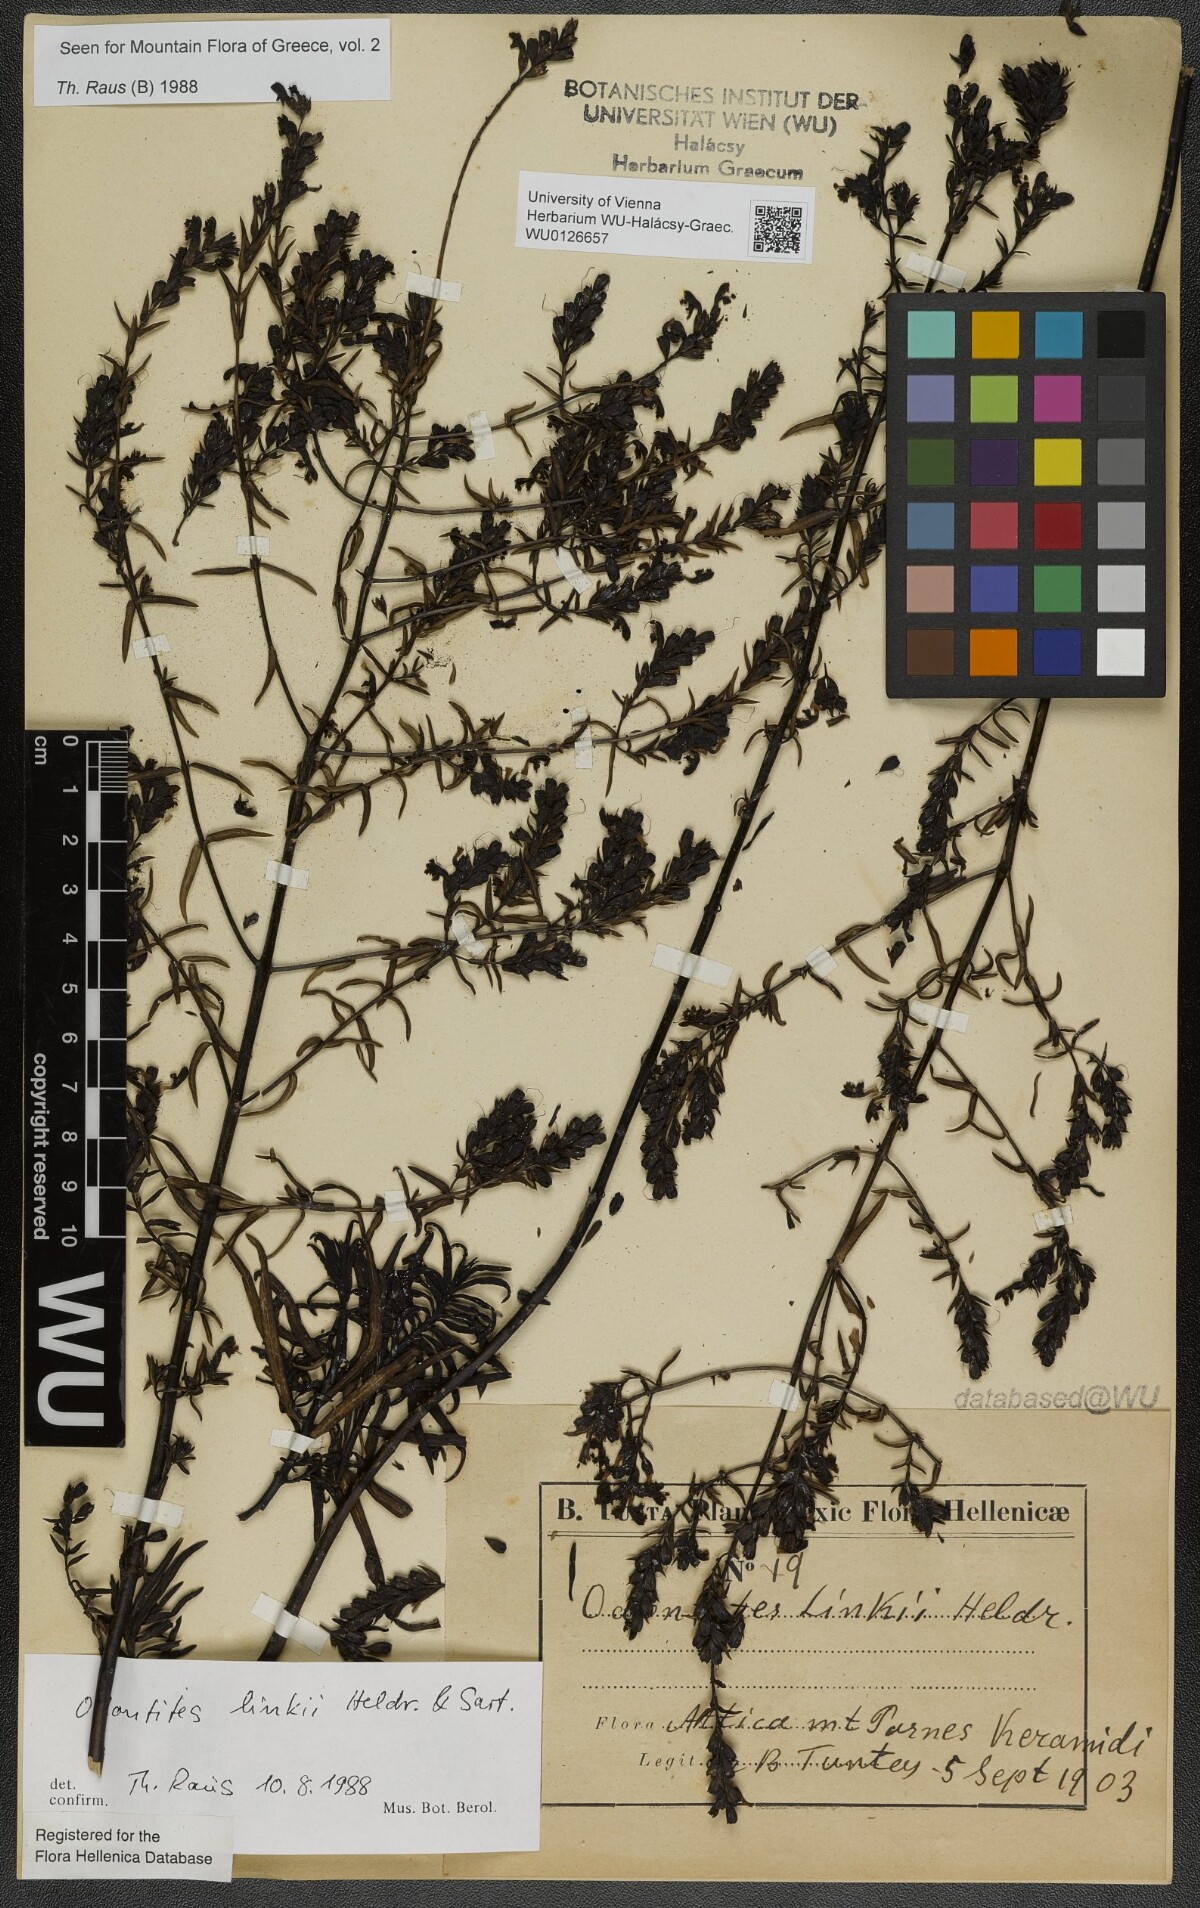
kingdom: Plantae
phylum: Tracheophyta
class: Magnoliopsida
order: Lamiales
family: Scrophulariaceae
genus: Odontites
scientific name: Odontites linkii
